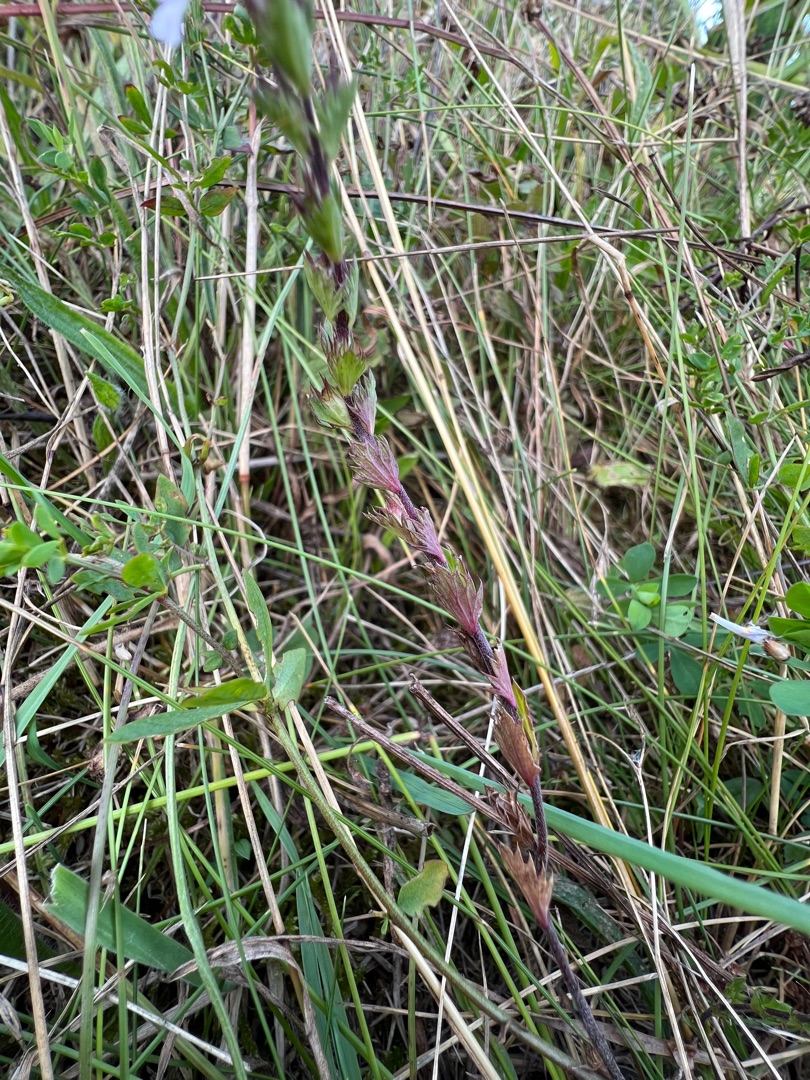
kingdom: Plantae
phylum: Tracheophyta
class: Magnoliopsida
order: Lamiales
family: Orobanchaceae
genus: Euphrasia
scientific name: Euphrasia stricta
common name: Spids øjentrøst
